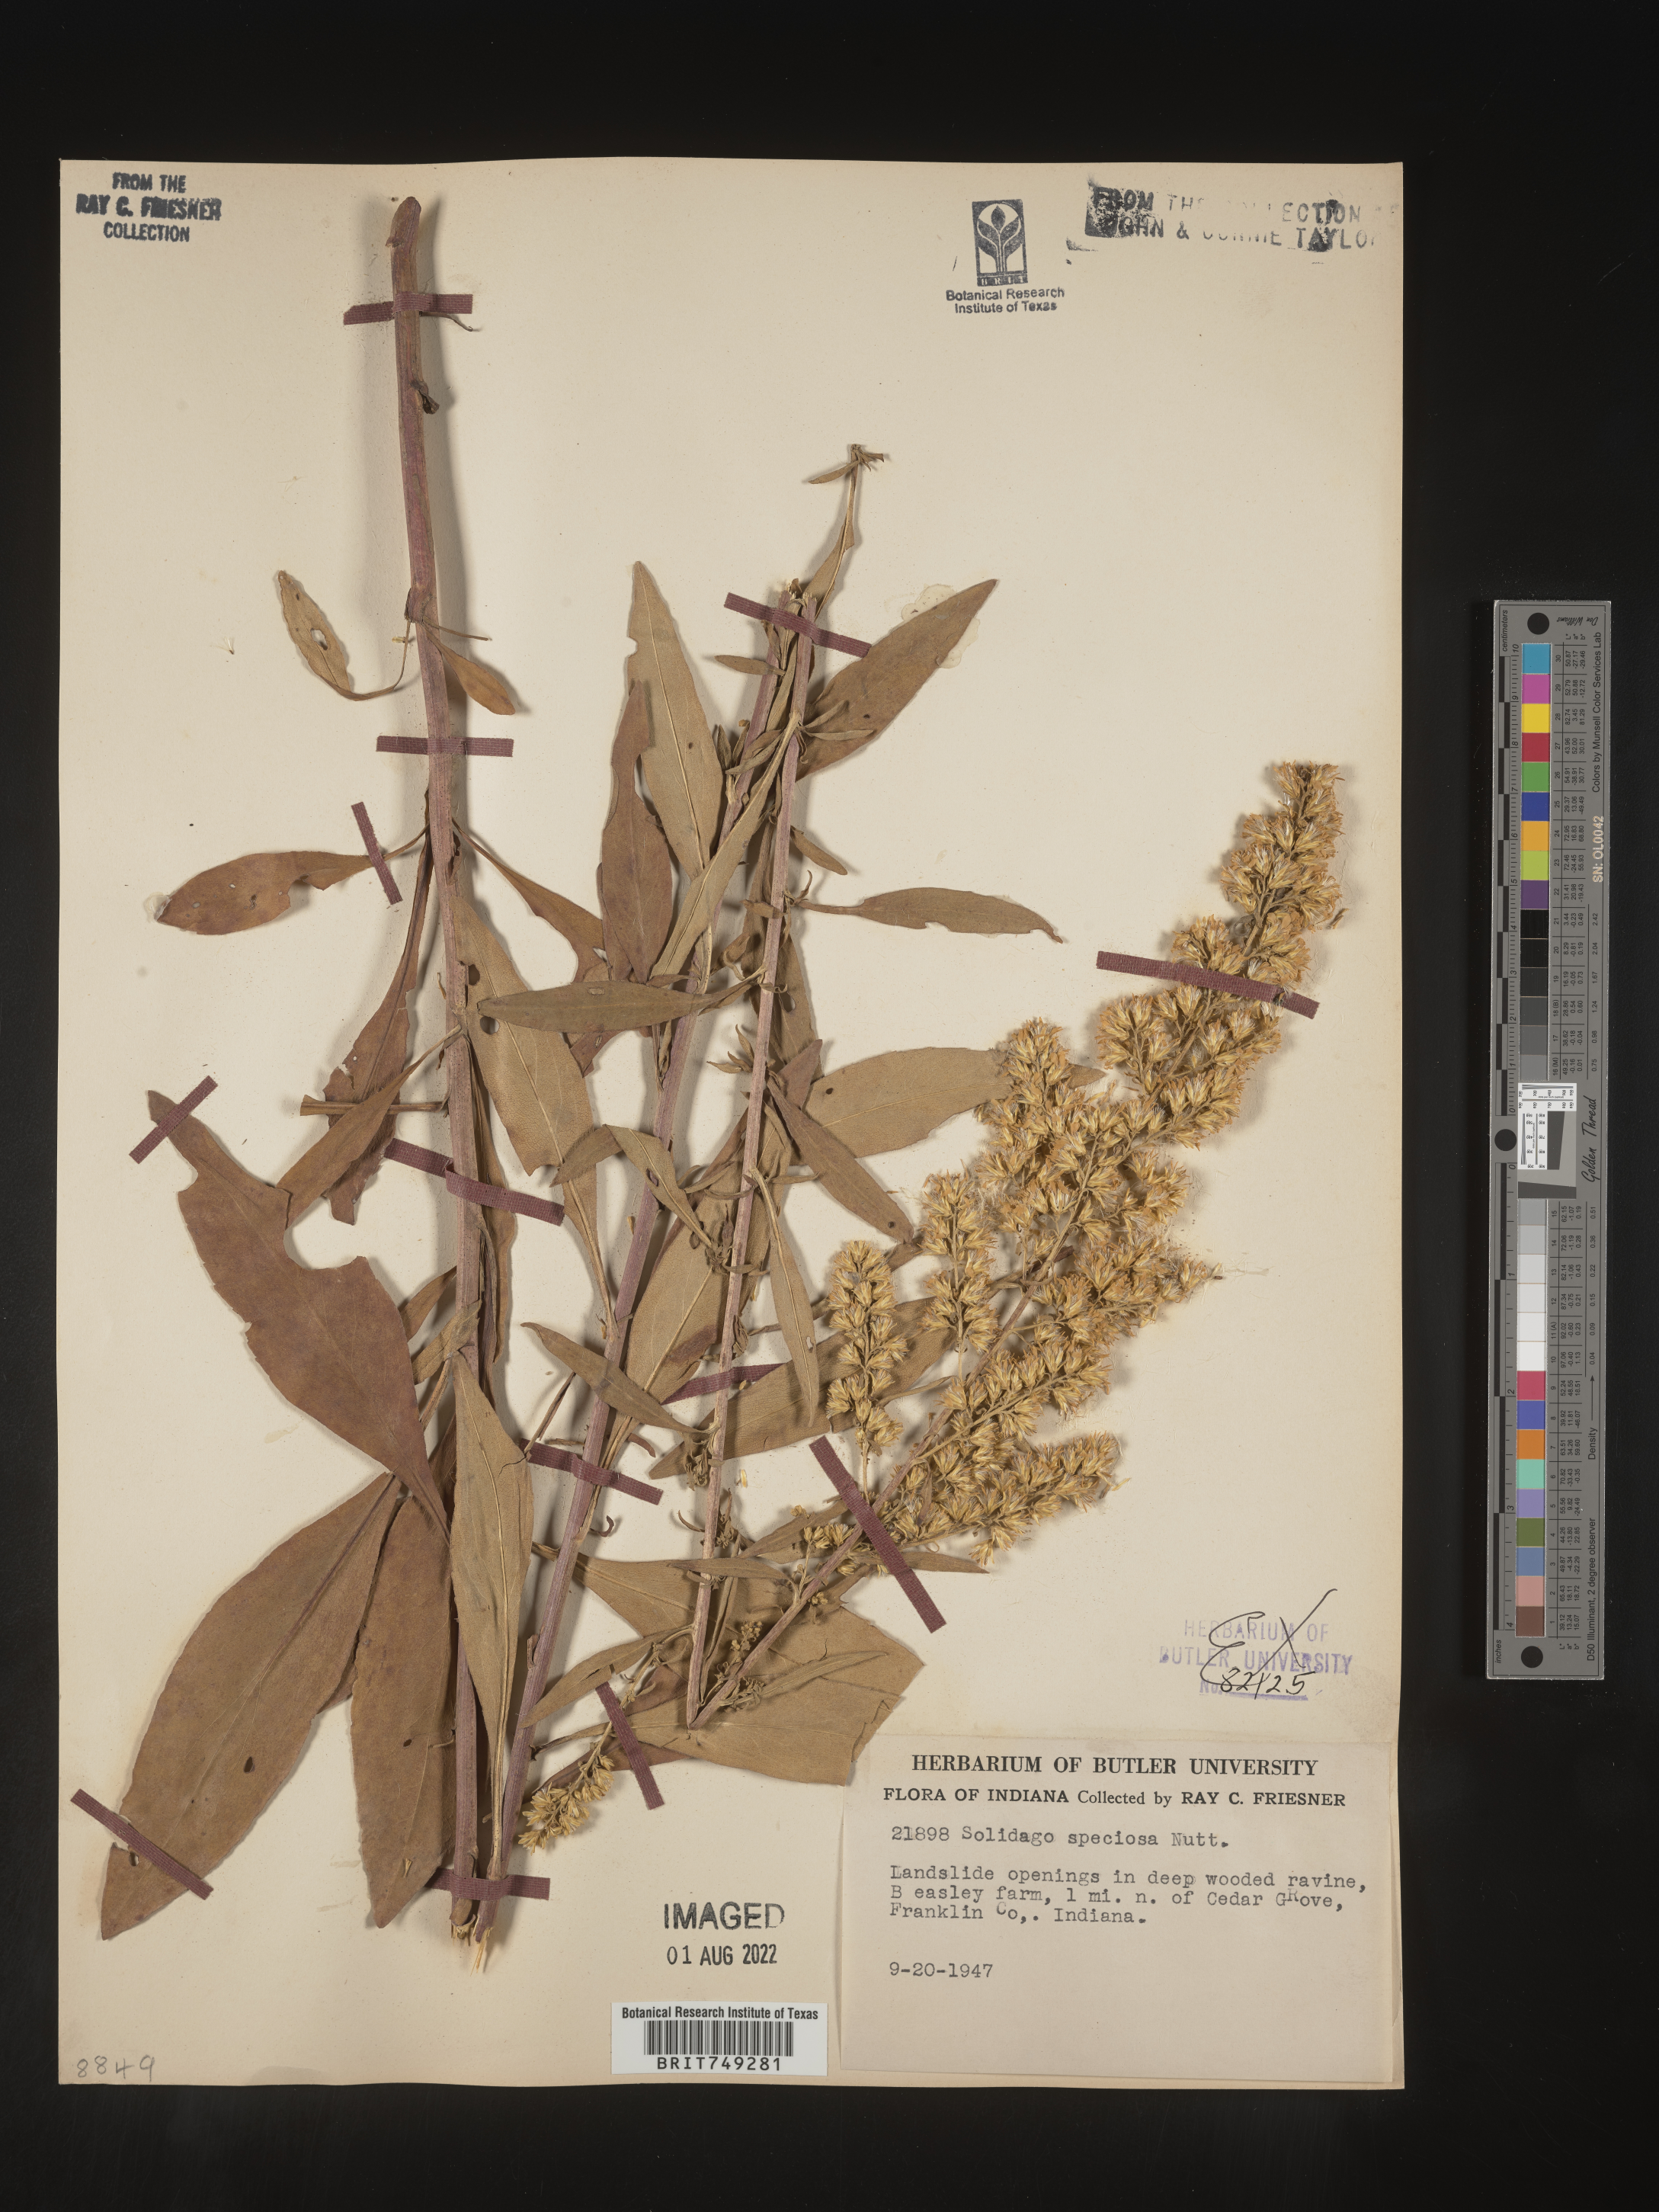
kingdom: Plantae
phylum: Tracheophyta
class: Magnoliopsida
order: Asterales
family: Asteraceae
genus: Solidago
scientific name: Solidago speciosa
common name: Showy goldenrod
